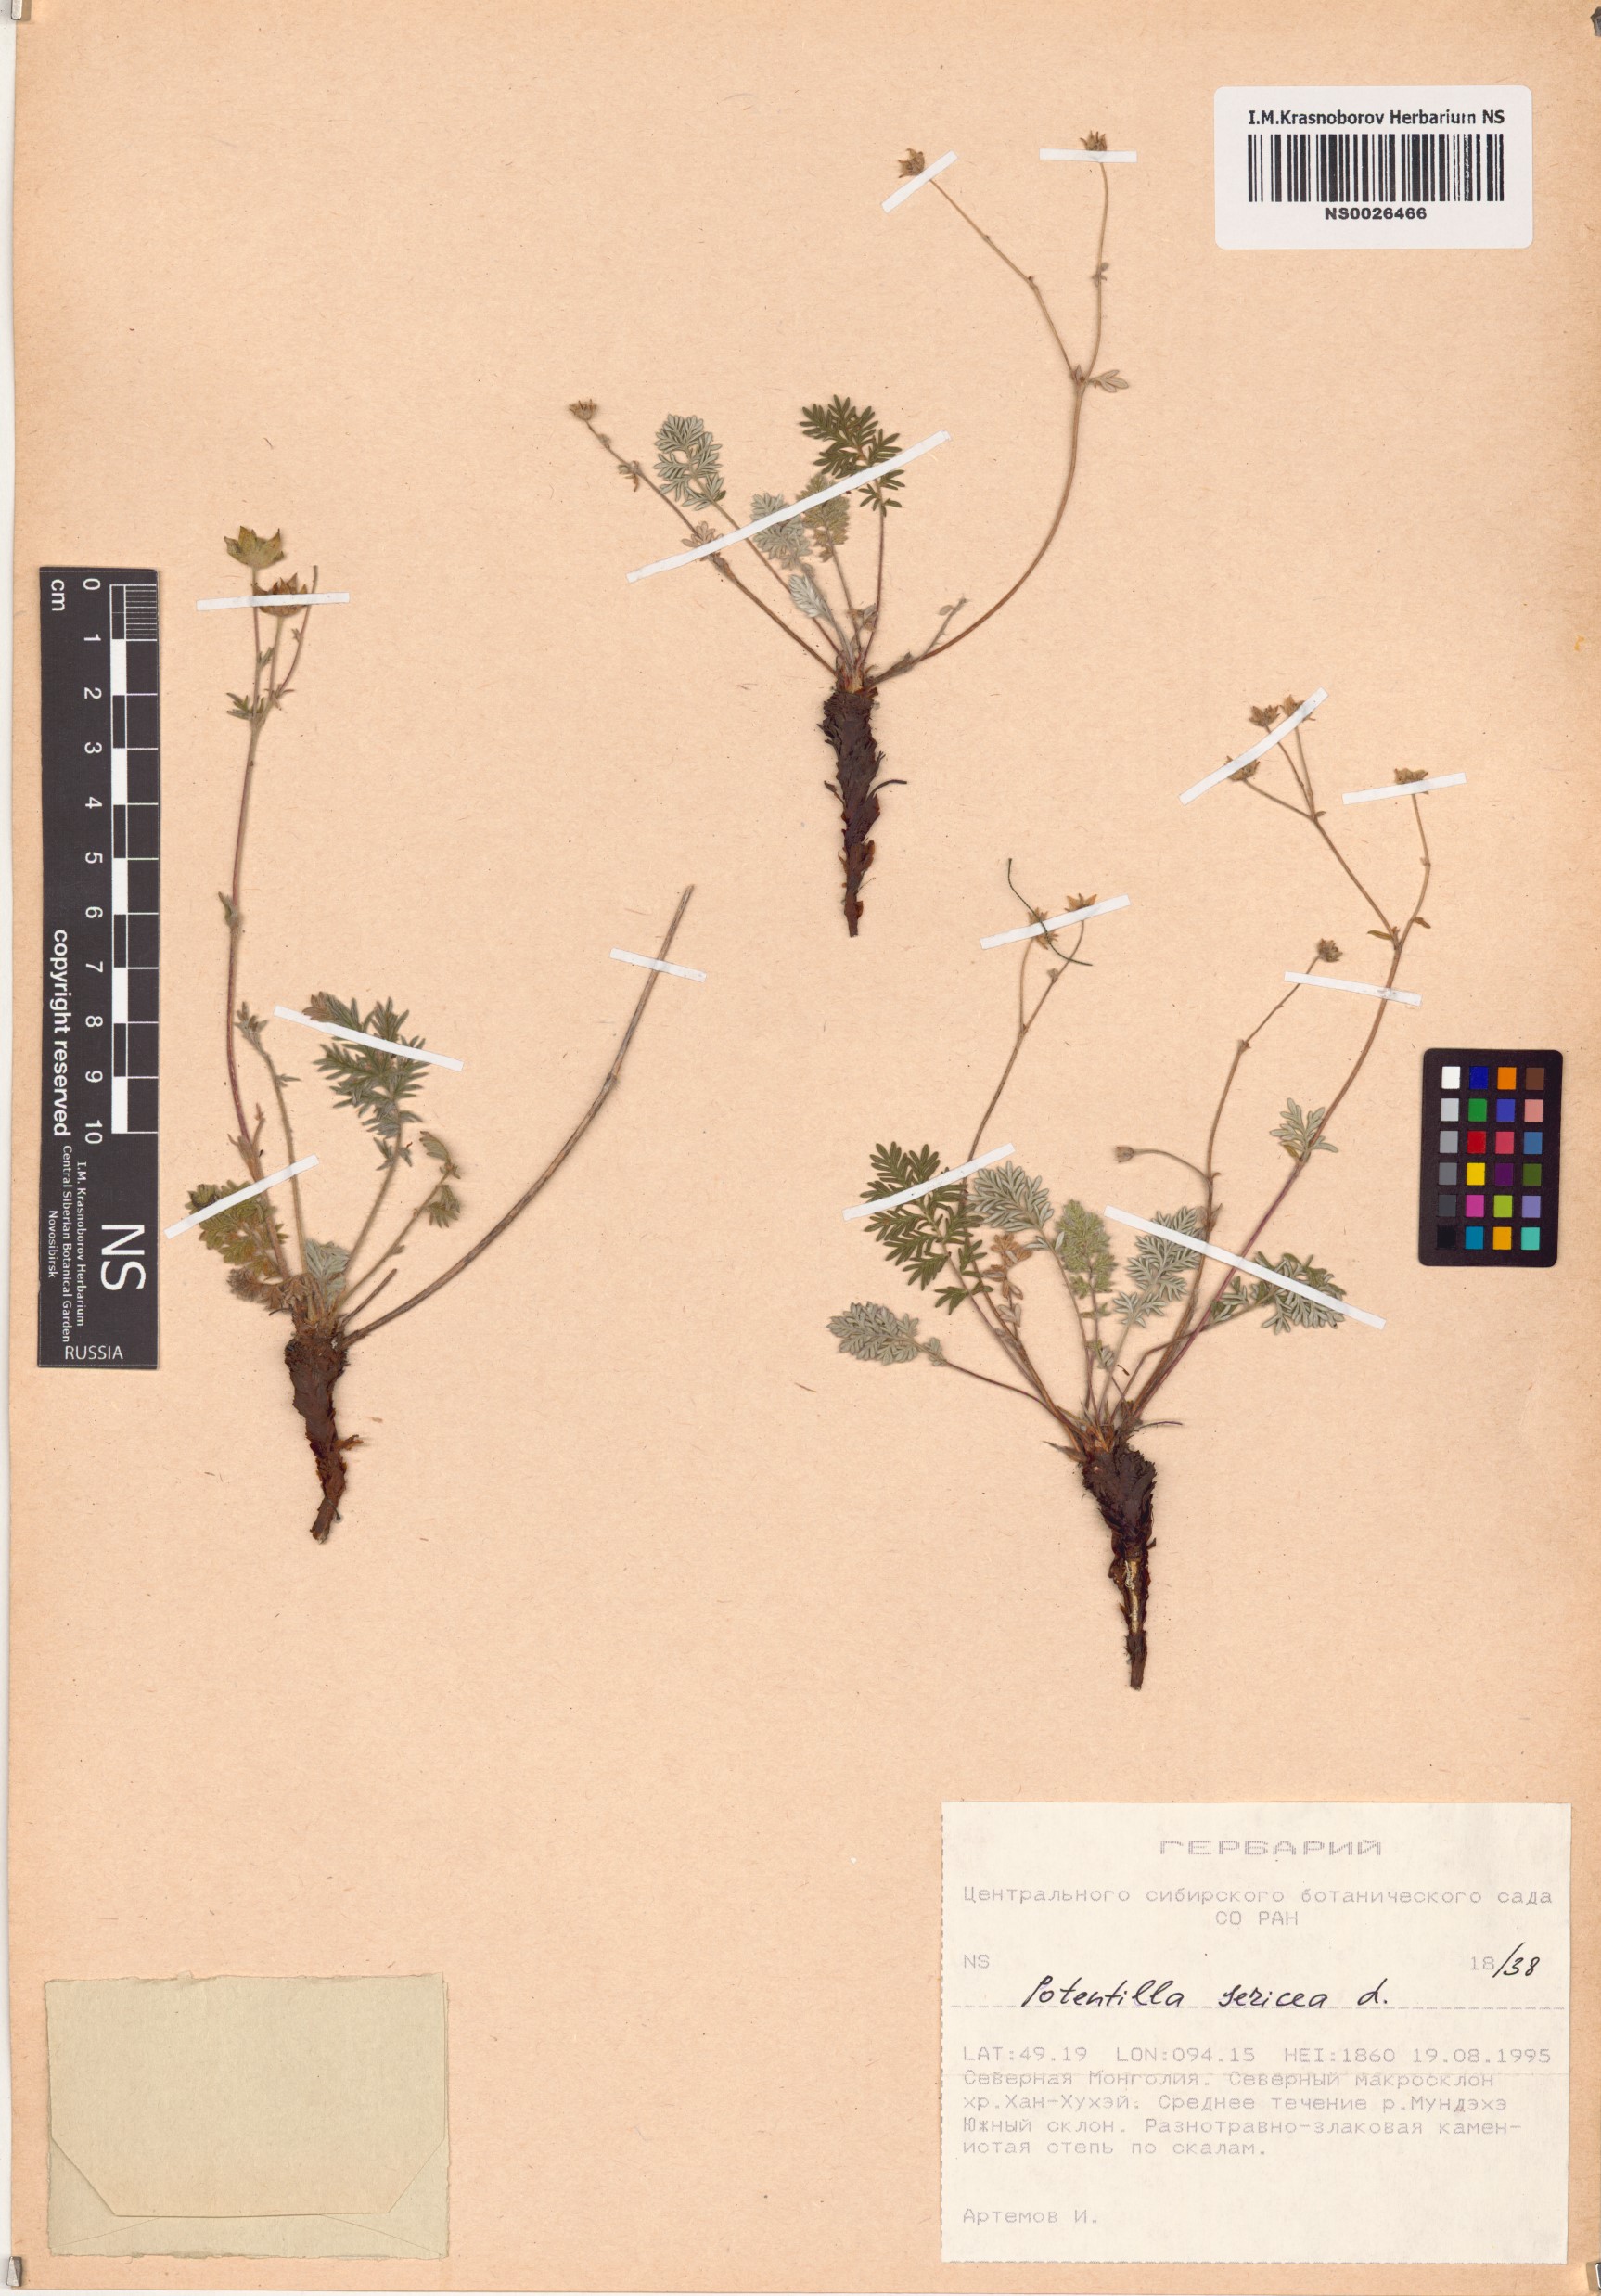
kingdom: Plantae
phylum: Tracheophyta
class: Magnoliopsida
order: Rosales
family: Rosaceae
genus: Potentilla
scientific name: Potentilla sericea
